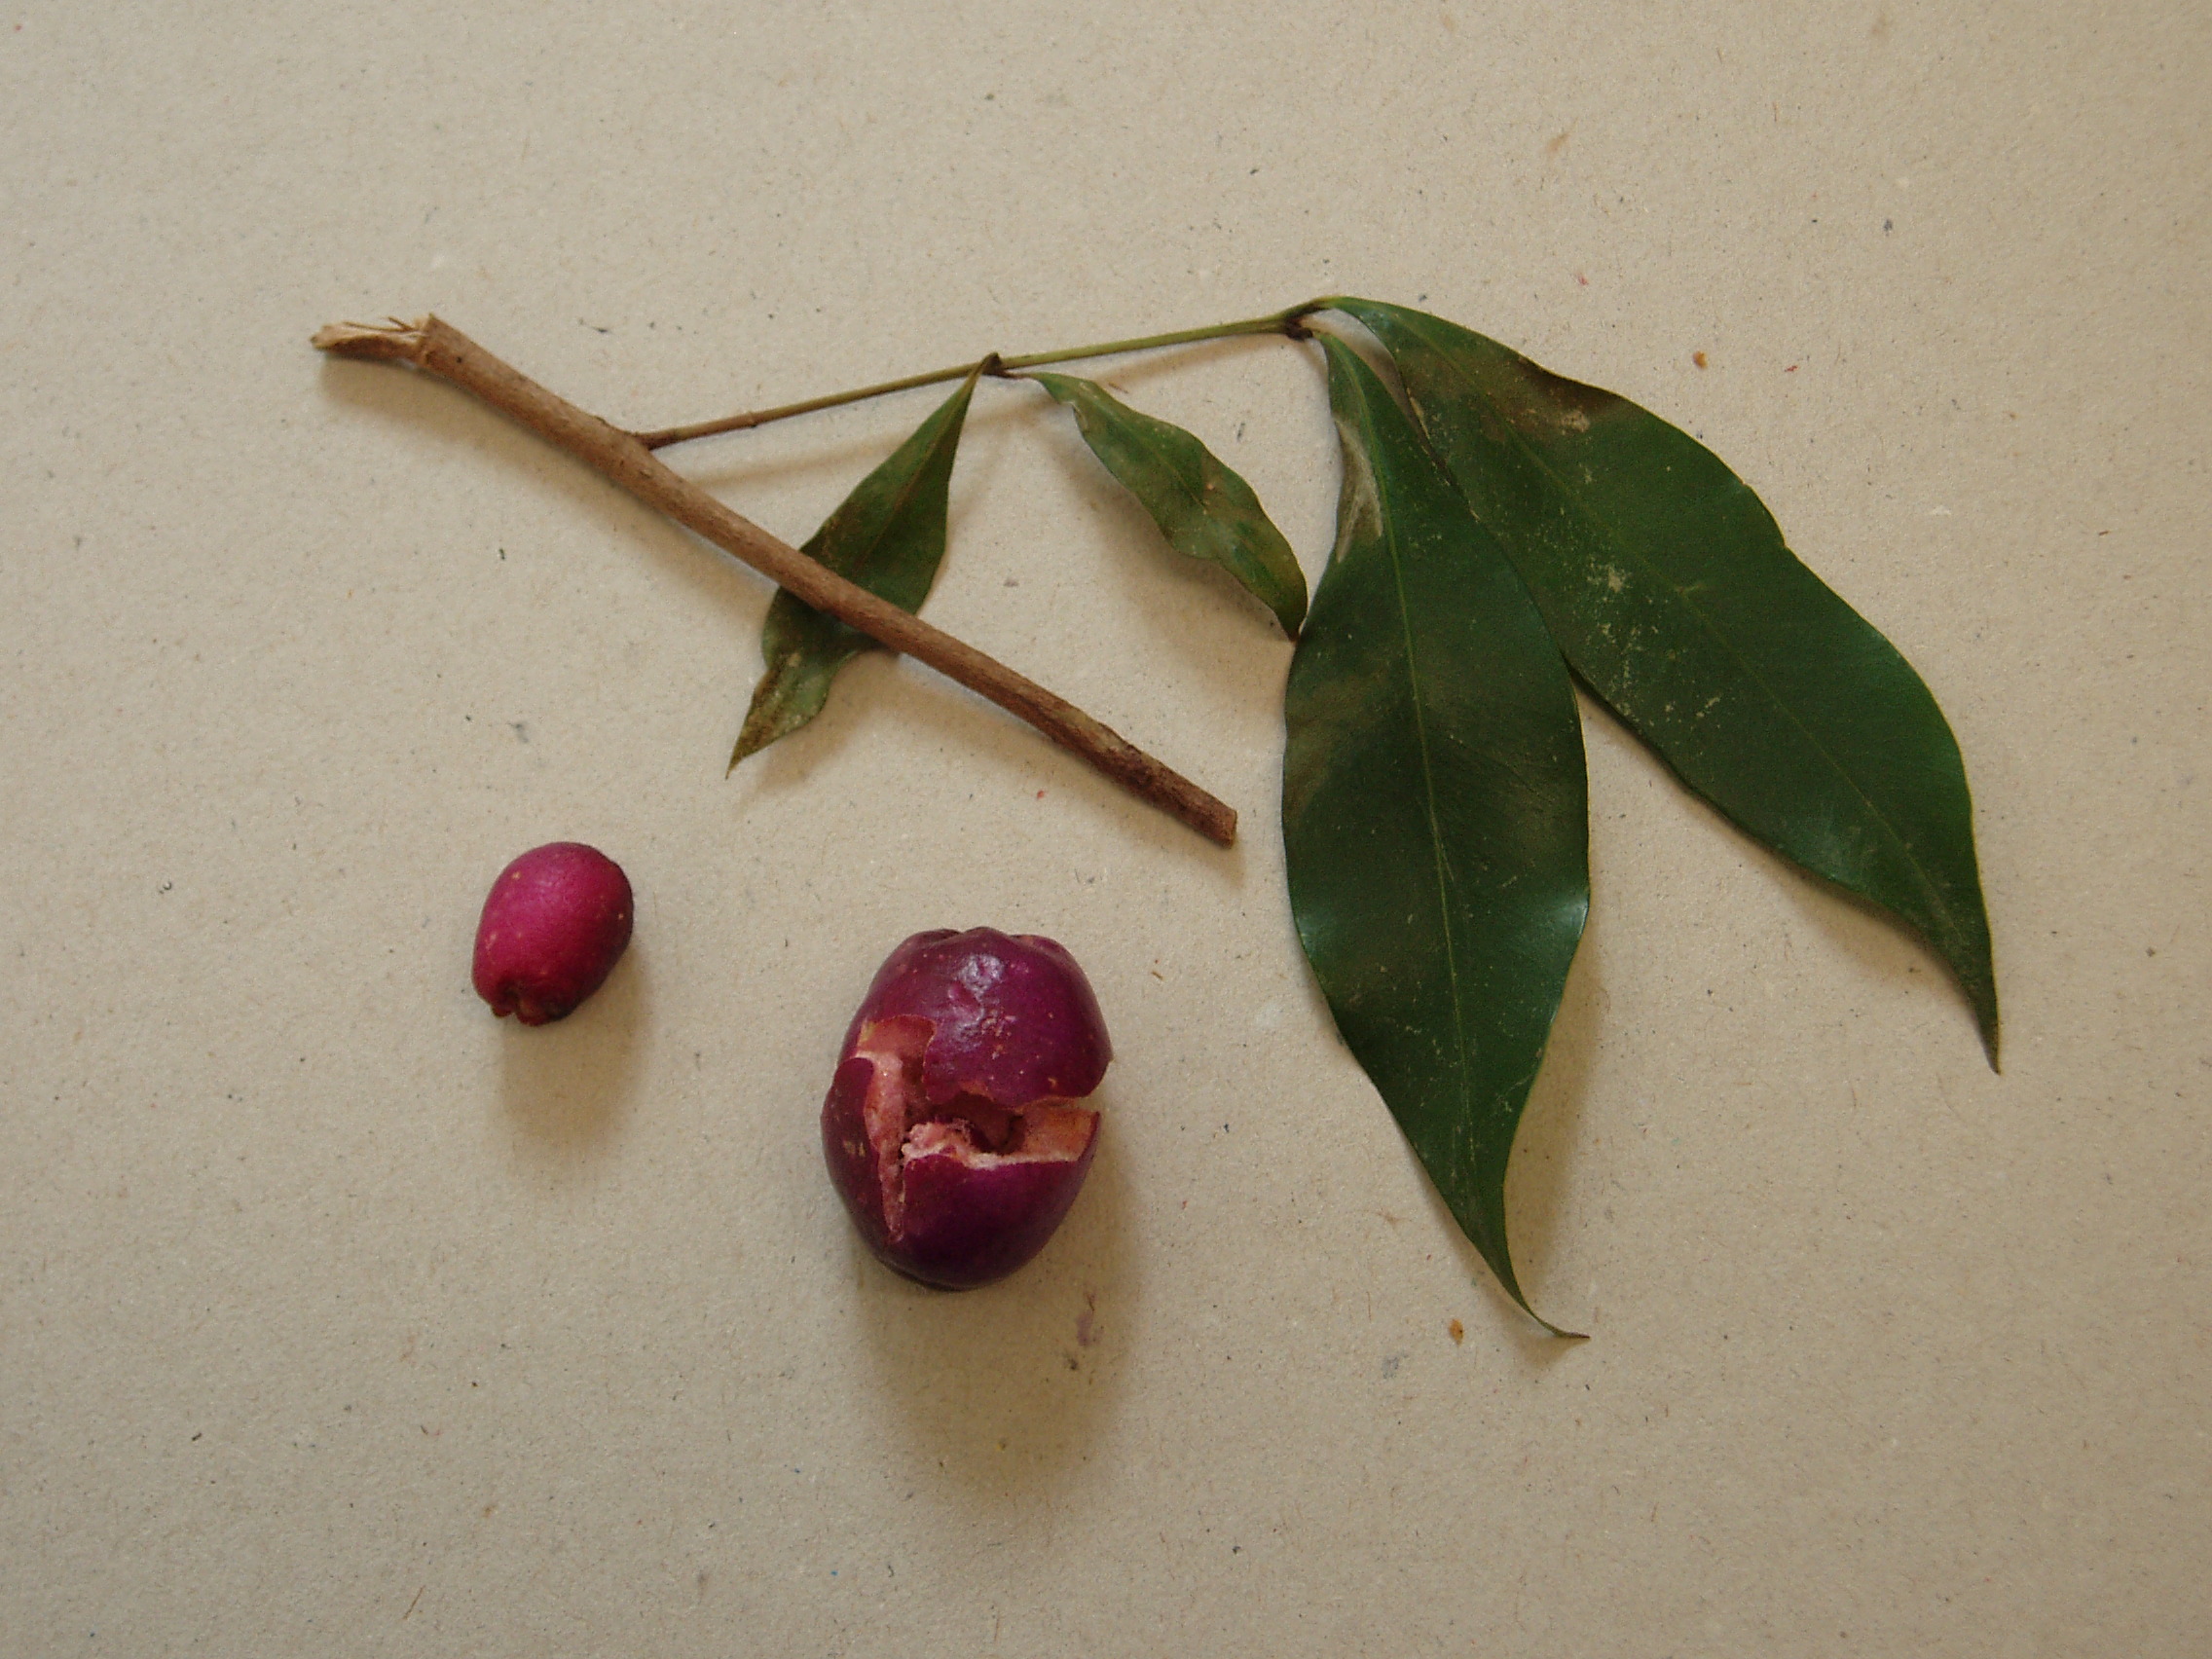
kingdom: Plantae
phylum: Tracheophyta
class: Magnoliopsida
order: Myrtales
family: Myrtaceae
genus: Syzygium
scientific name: Syzygium paniculatum
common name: Magenta lilly-pilly
